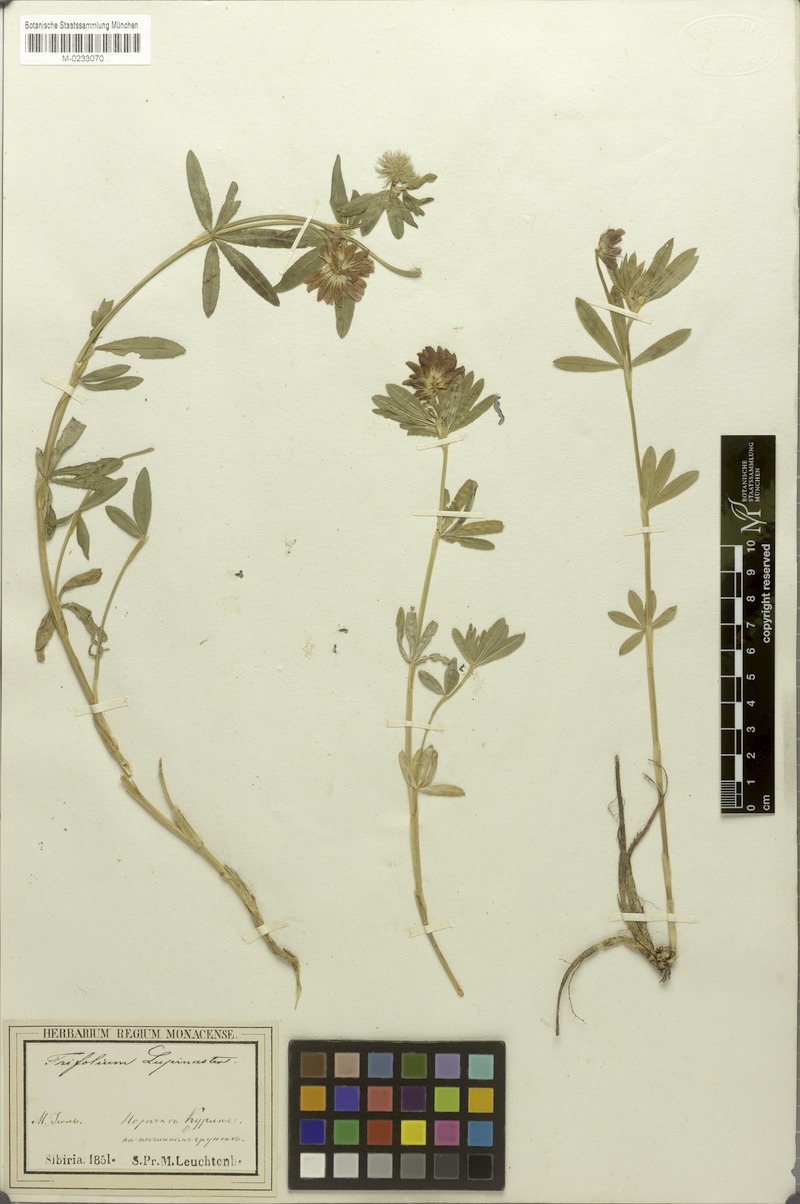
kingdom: Plantae
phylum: Tracheophyta
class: Magnoliopsida
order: Fabales
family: Fabaceae
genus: Trifolium
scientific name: Trifolium lupinaster
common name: Lupine clover
